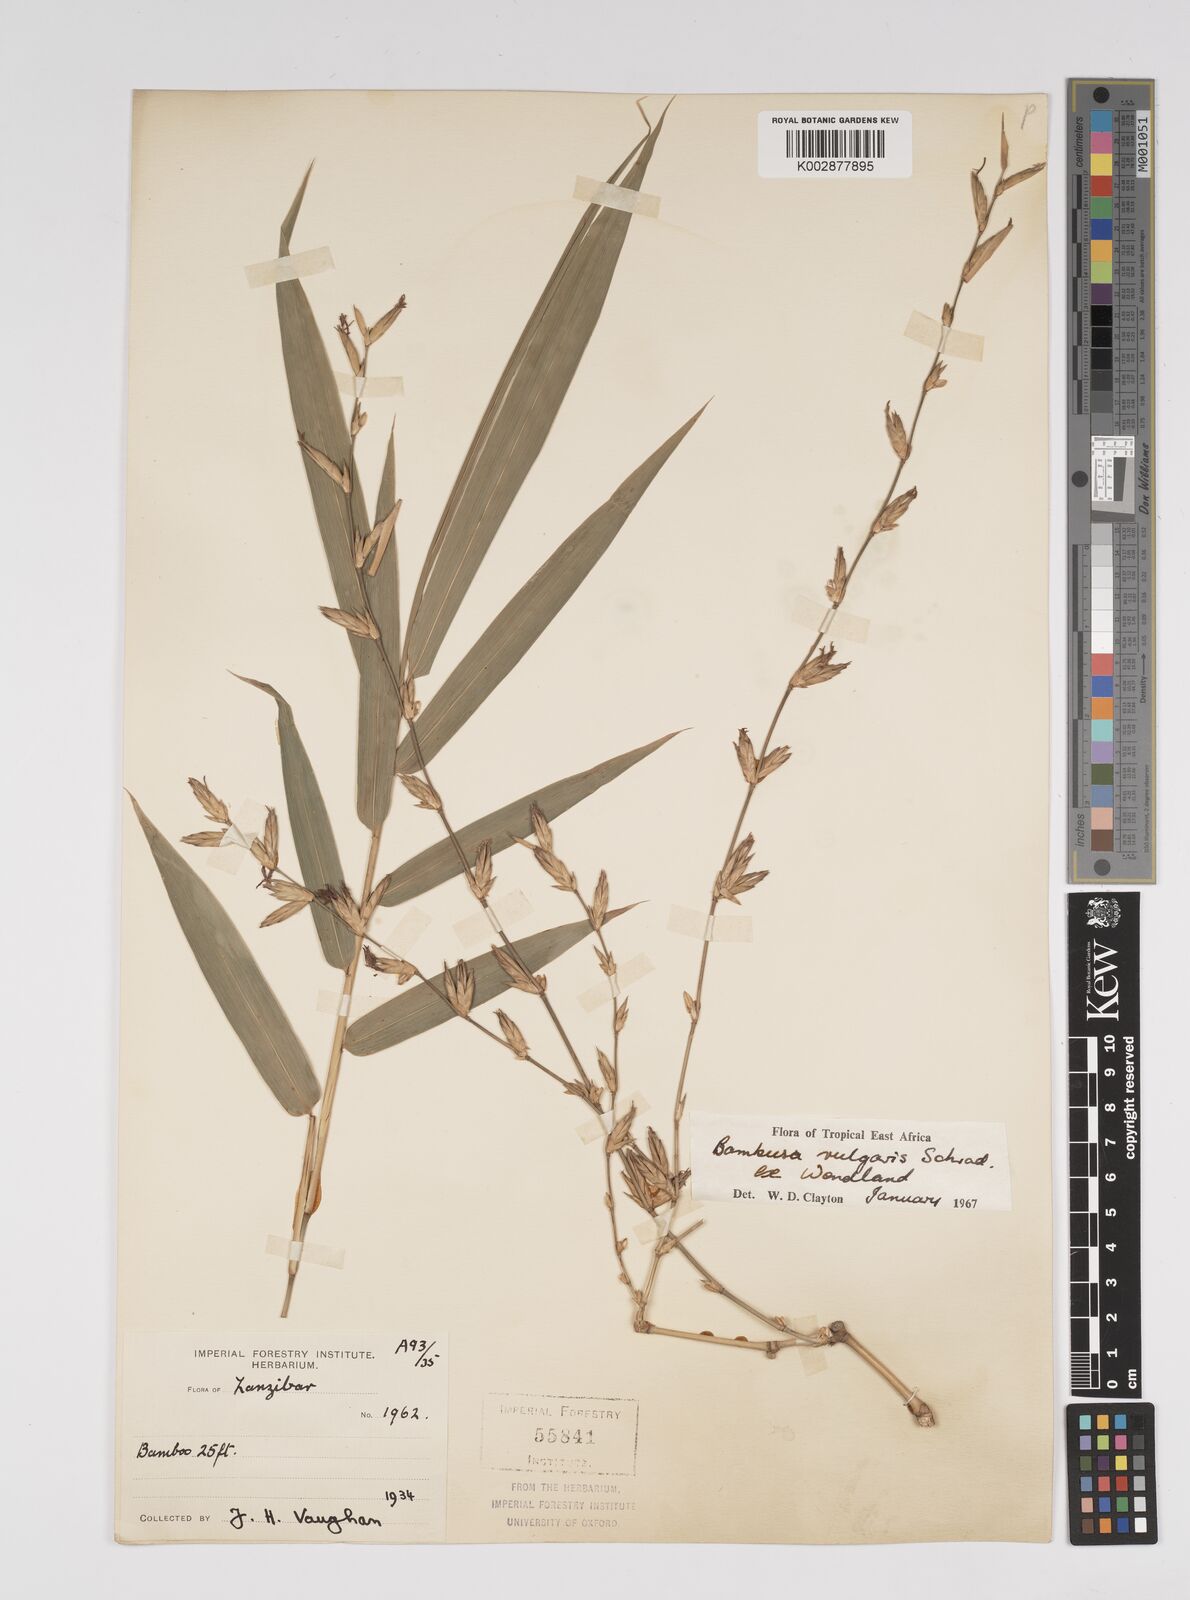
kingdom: Plantae
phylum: Tracheophyta
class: Liliopsida
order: Poales
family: Poaceae
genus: Bambusa
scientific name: Bambusa balcooa
